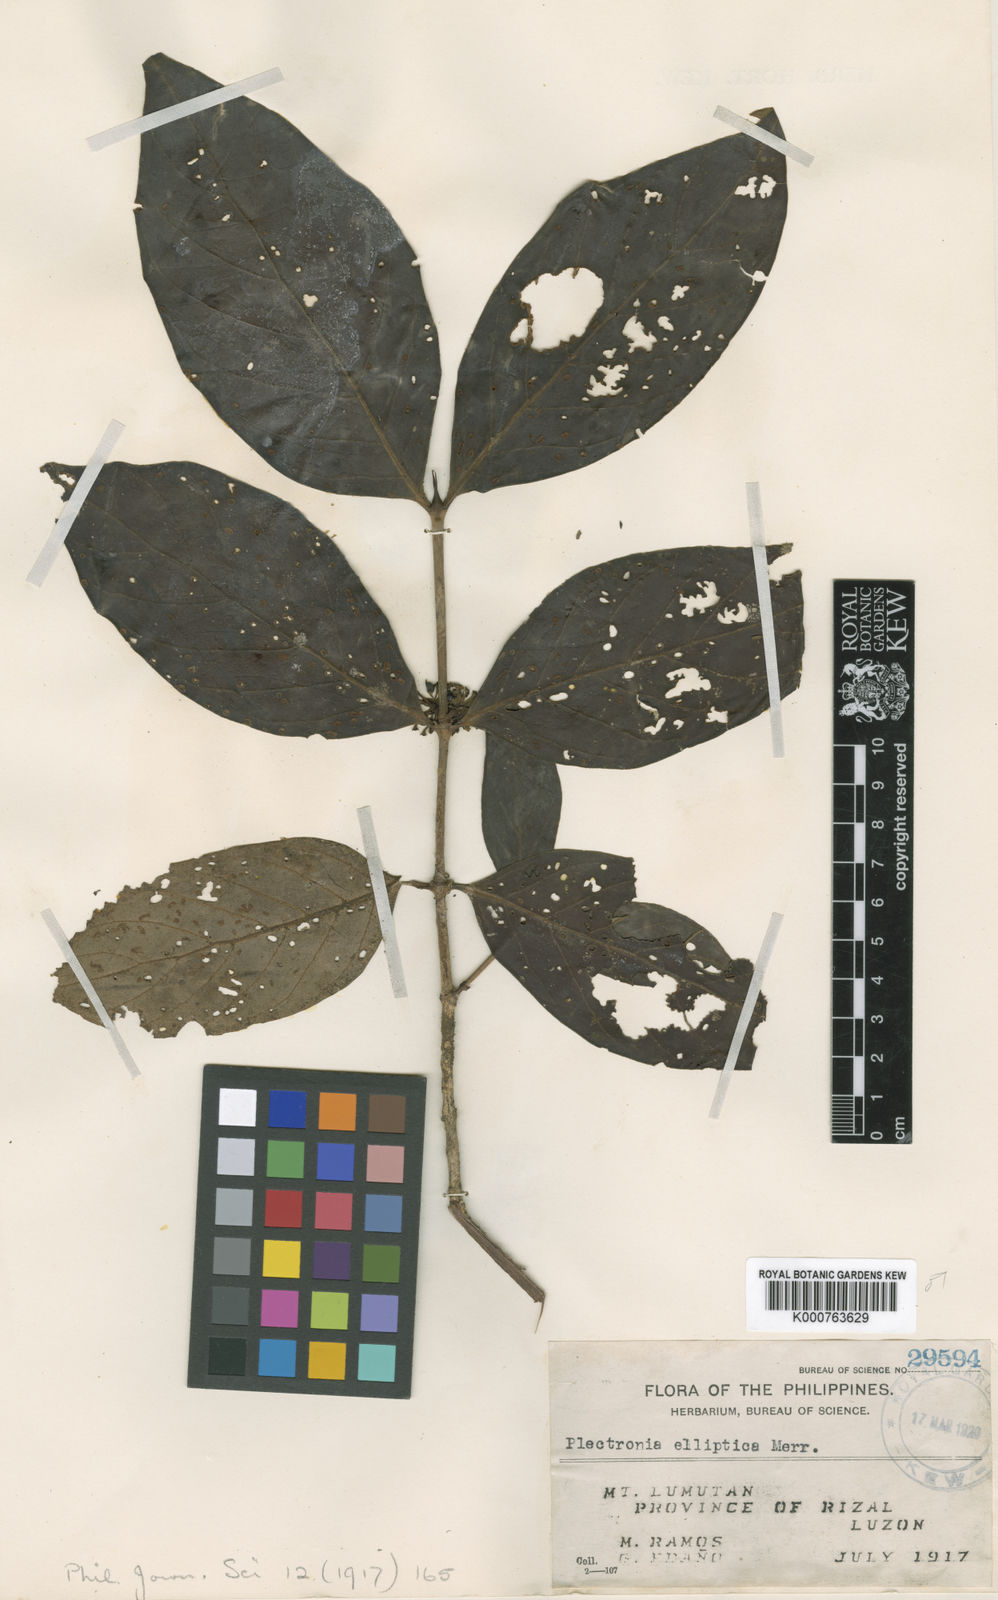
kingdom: Plantae
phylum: Tracheophyta
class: Magnoliopsida
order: Gentianales
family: Rubiaceae
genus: Canthium
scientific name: Canthium
